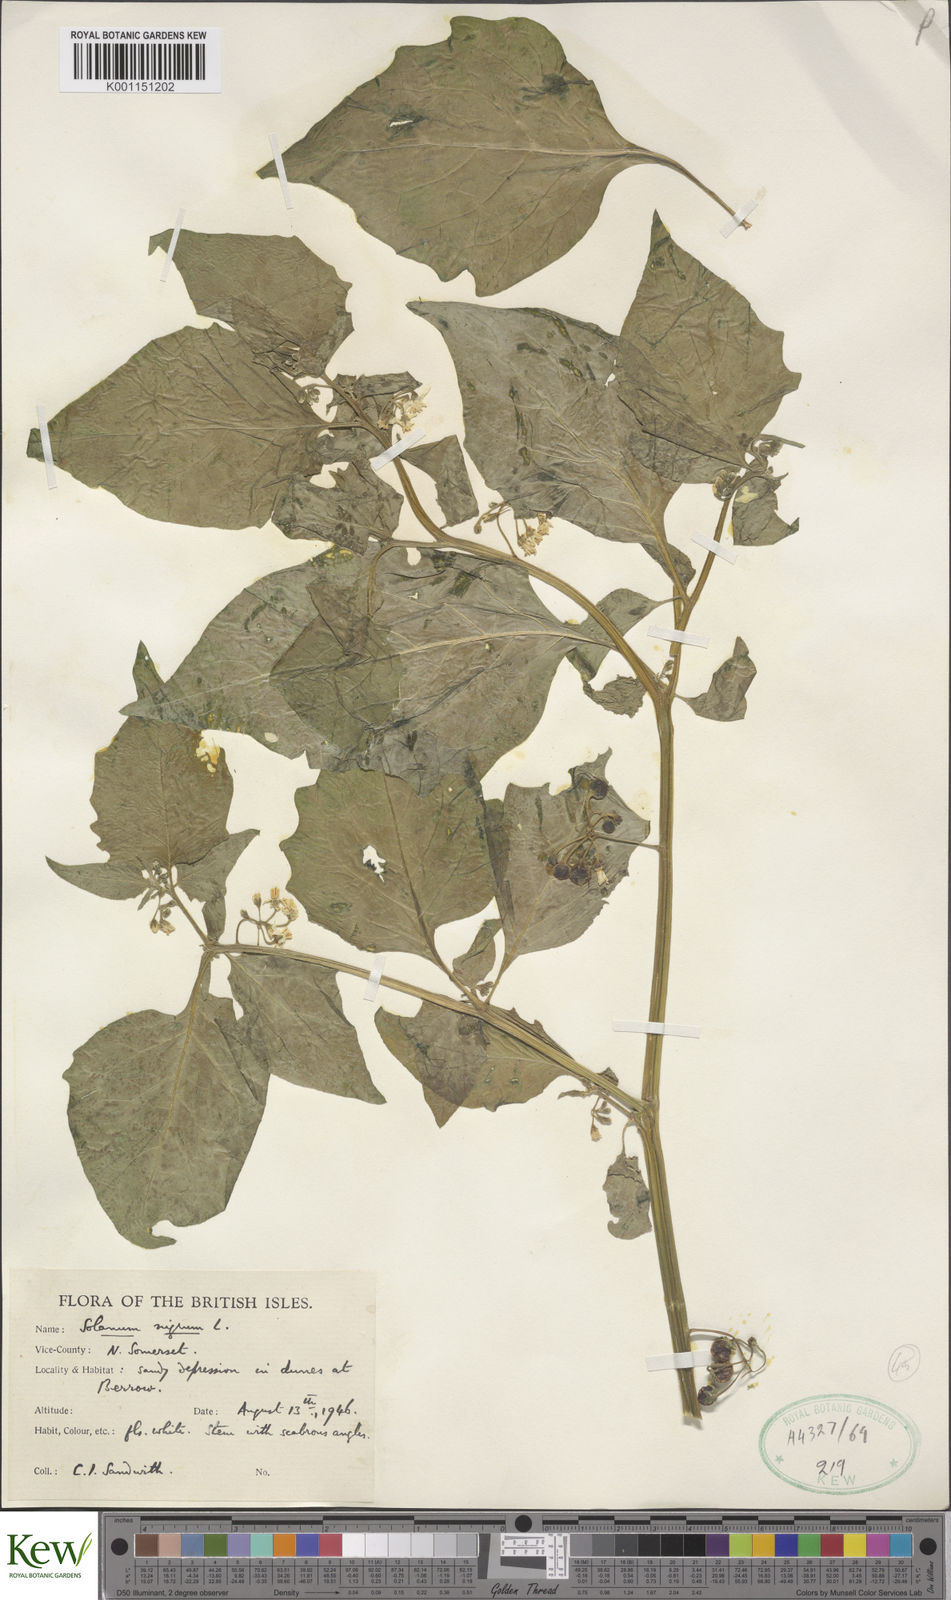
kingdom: Plantae
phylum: Tracheophyta
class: Magnoliopsida
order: Solanales
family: Solanaceae
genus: Solanum
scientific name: Solanum nigrum
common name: Black nightshade
